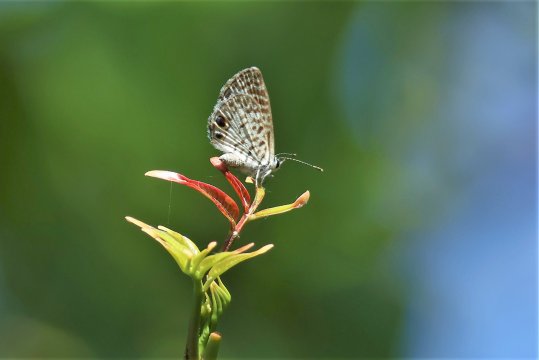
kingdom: Animalia
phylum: Arthropoda
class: Insecta
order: Lepidoptera
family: Lycaenidae
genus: Leptotes
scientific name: Leptotes cassius
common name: Cassius Blue
